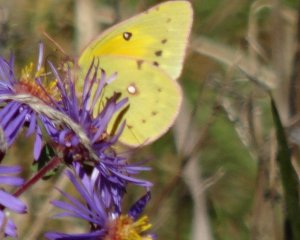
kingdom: Animalia
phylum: Arthropoda
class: Insecta
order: Lepidoptera
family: Pieridae
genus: Colias
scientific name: Colias eurytheme
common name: Orange Sulphur
